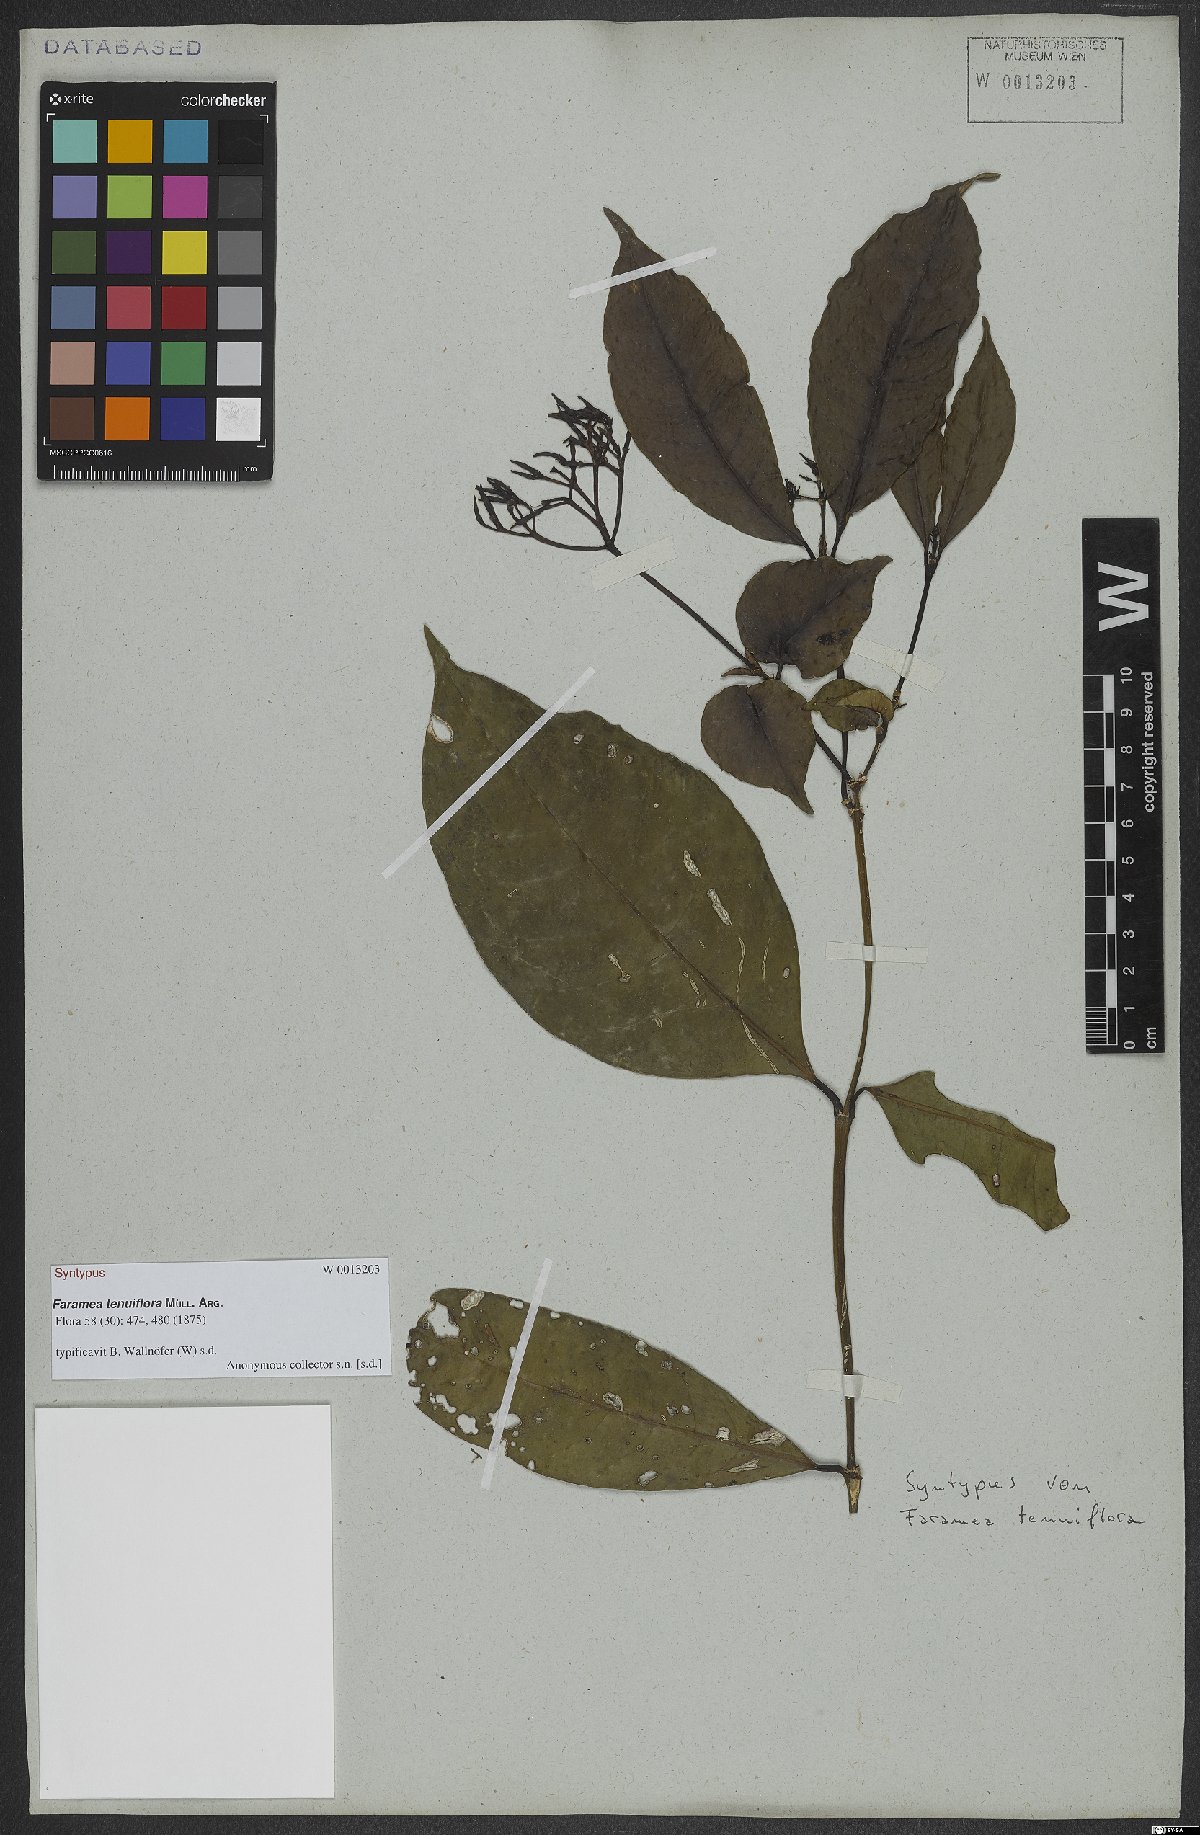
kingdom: Plantae
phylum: Tracheophyta
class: Magnoliopsida
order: Gentianales
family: Rubiaceae
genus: Faramea
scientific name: Faramea tenuiflora
